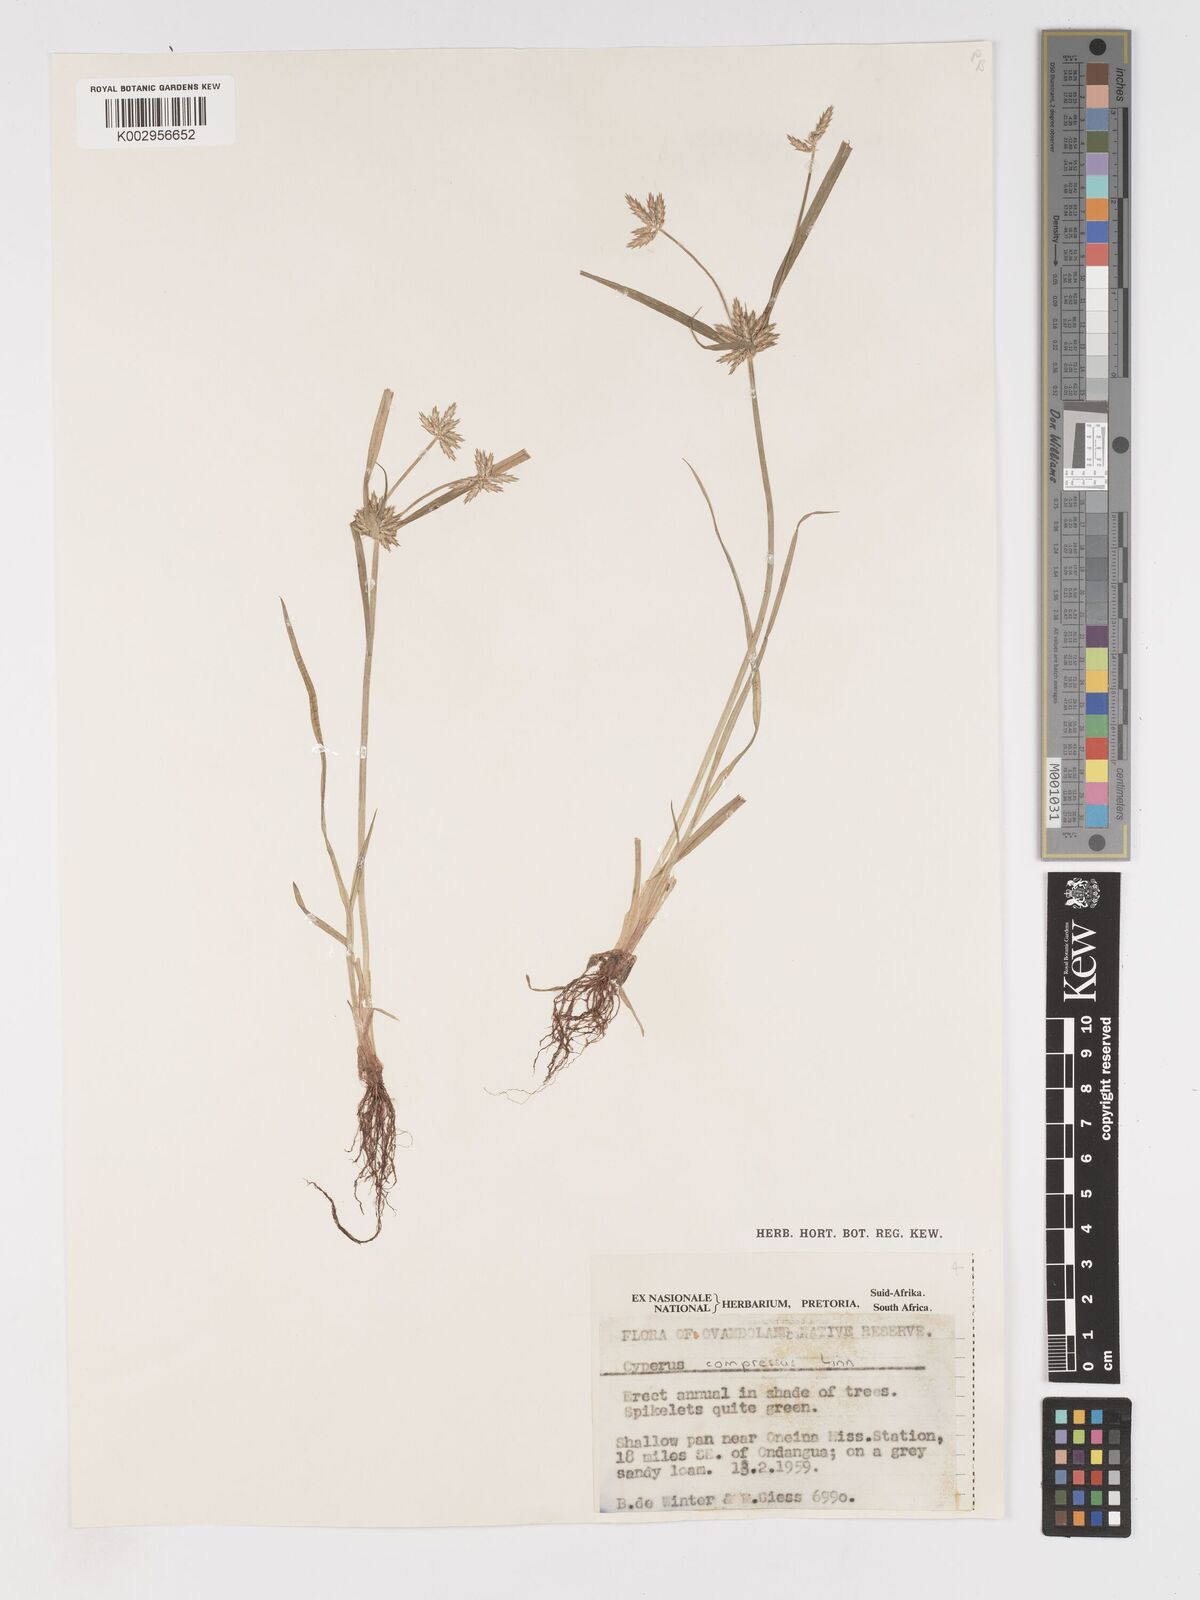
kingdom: Plantae
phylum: Tracheophyta
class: Liliopsida
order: Poales
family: Cyperaceae
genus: Cyperus
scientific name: Cyperus compressus
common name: Poorland flatsedge
